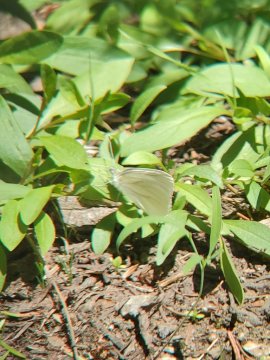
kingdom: Animalia
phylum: Arthropoda
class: Insecta
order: Lepidoptera
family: Pieridae
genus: Pieris
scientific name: Pieris marginalis
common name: Margined White
